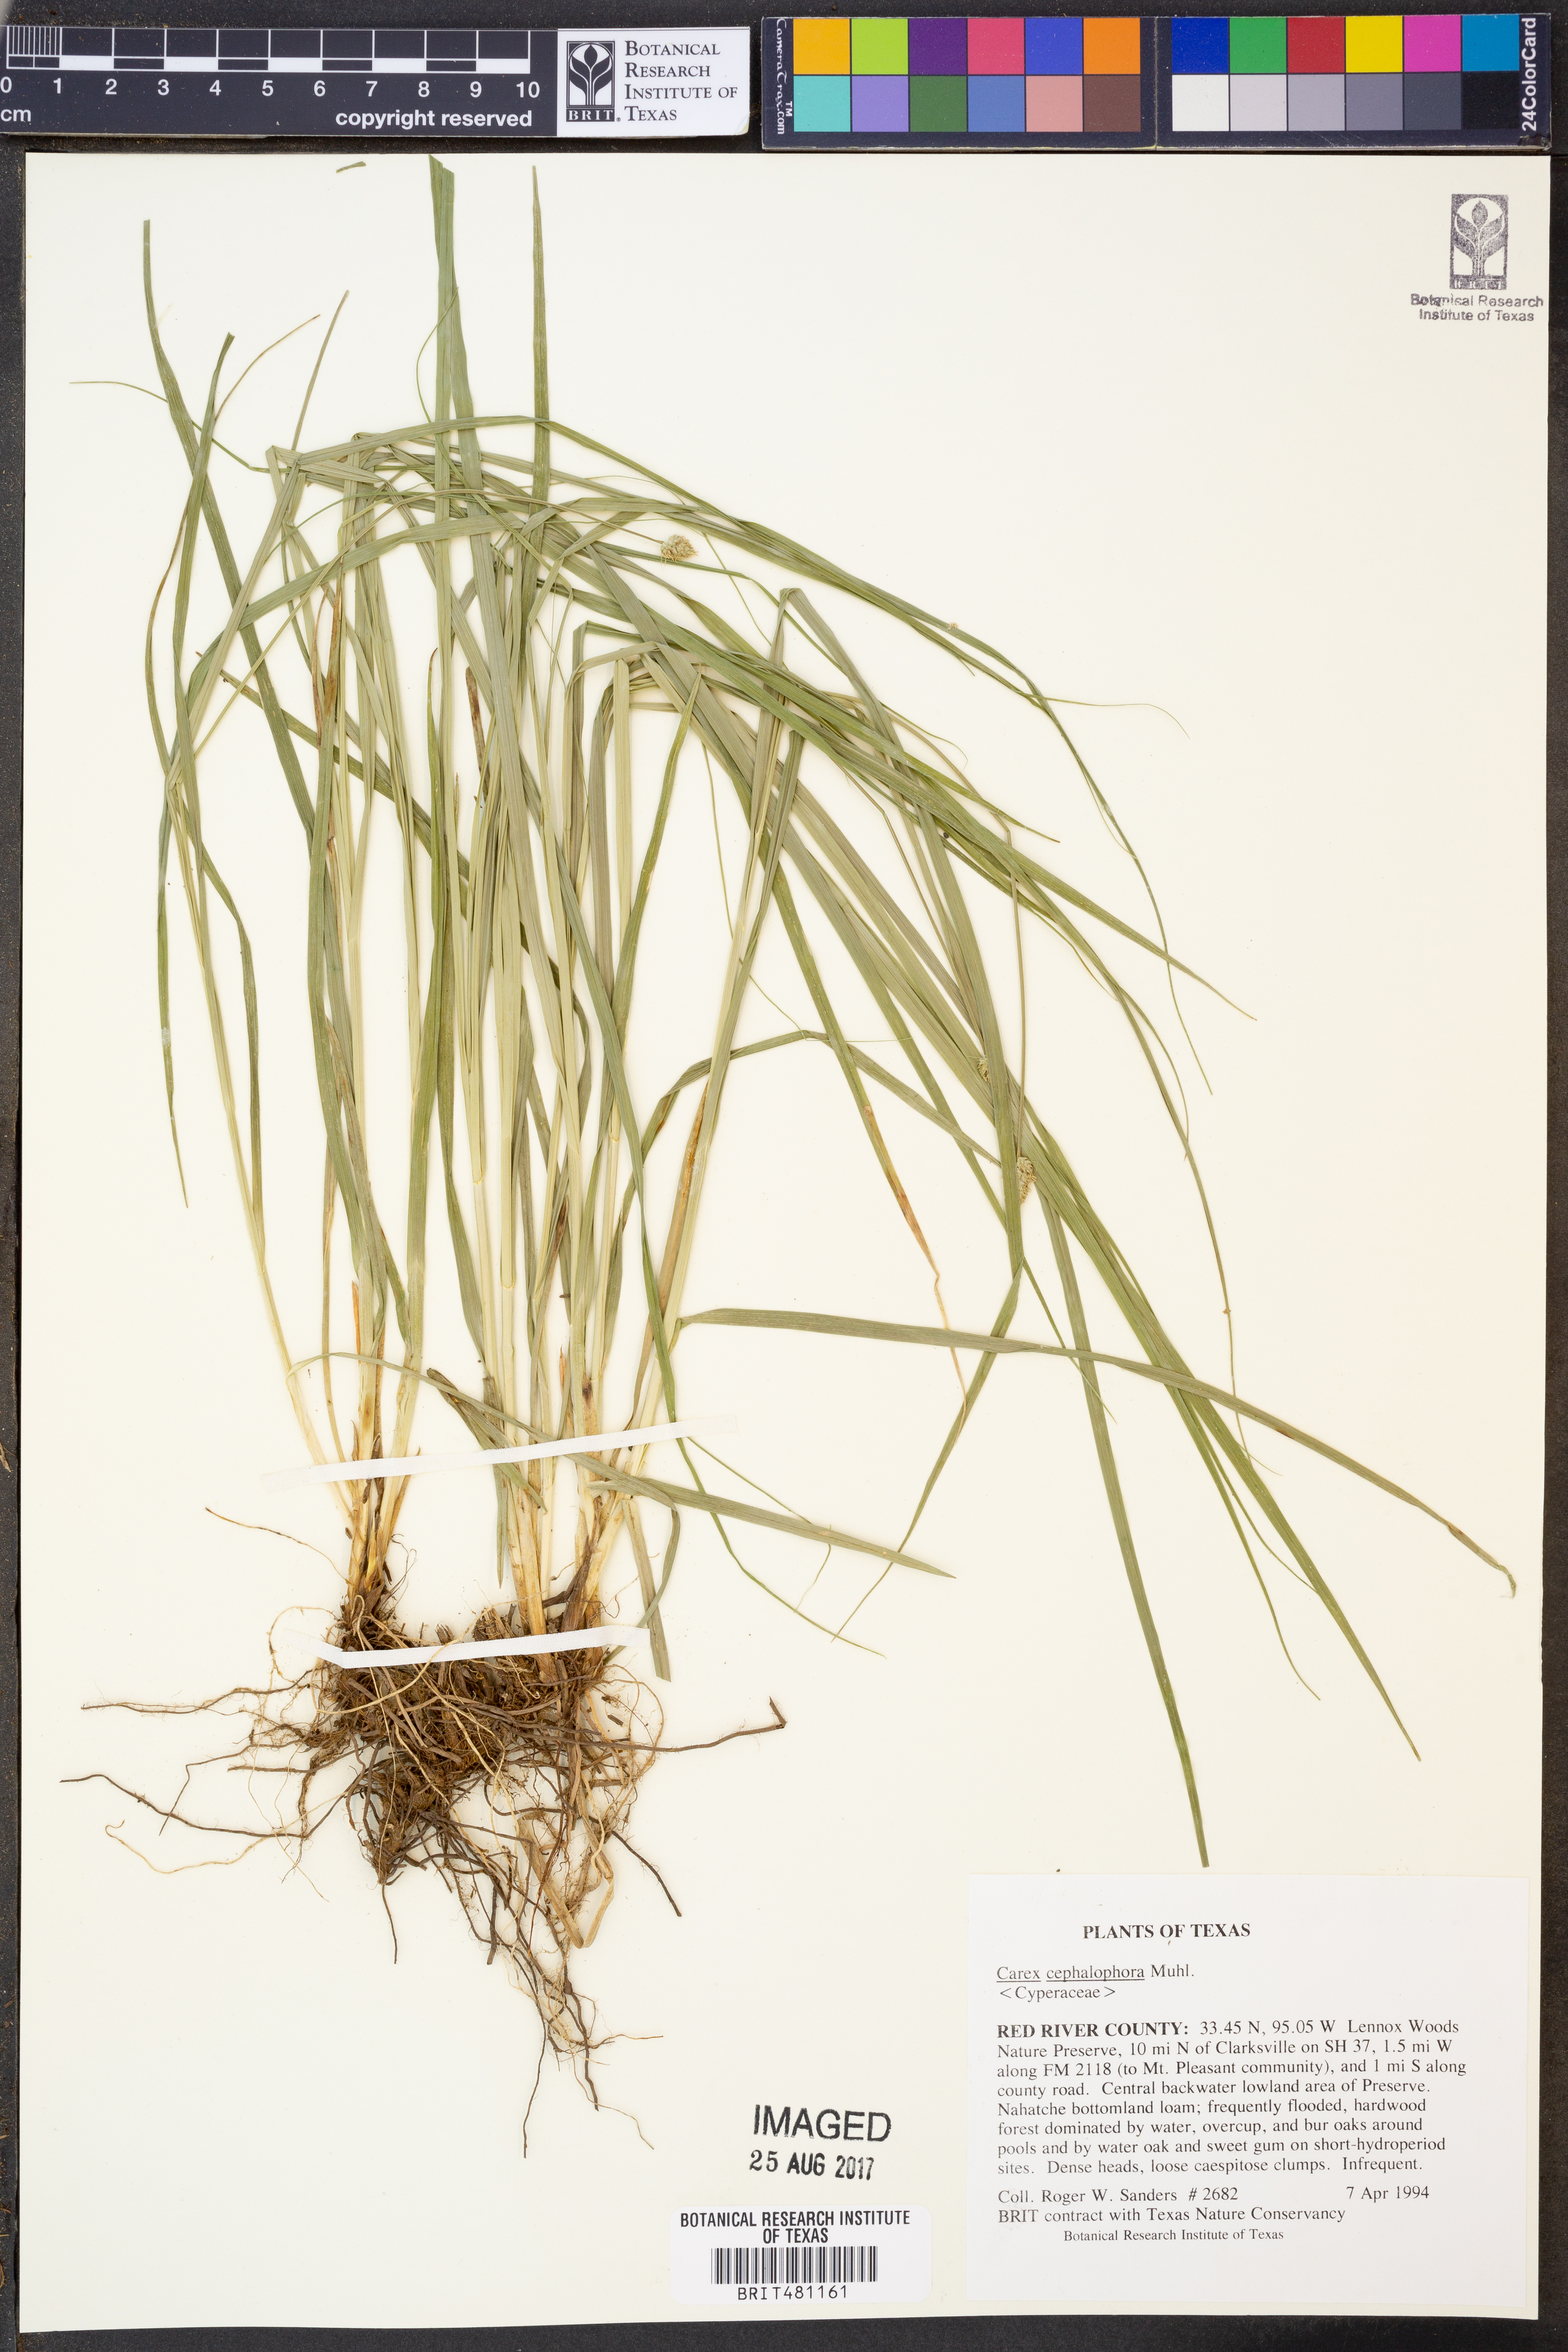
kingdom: Plantae
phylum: Tracheophyta
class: Liliopsida
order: Poales
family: Cyperaceae
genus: Carex
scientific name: Carex cephalophora
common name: Oval-headed sedge
